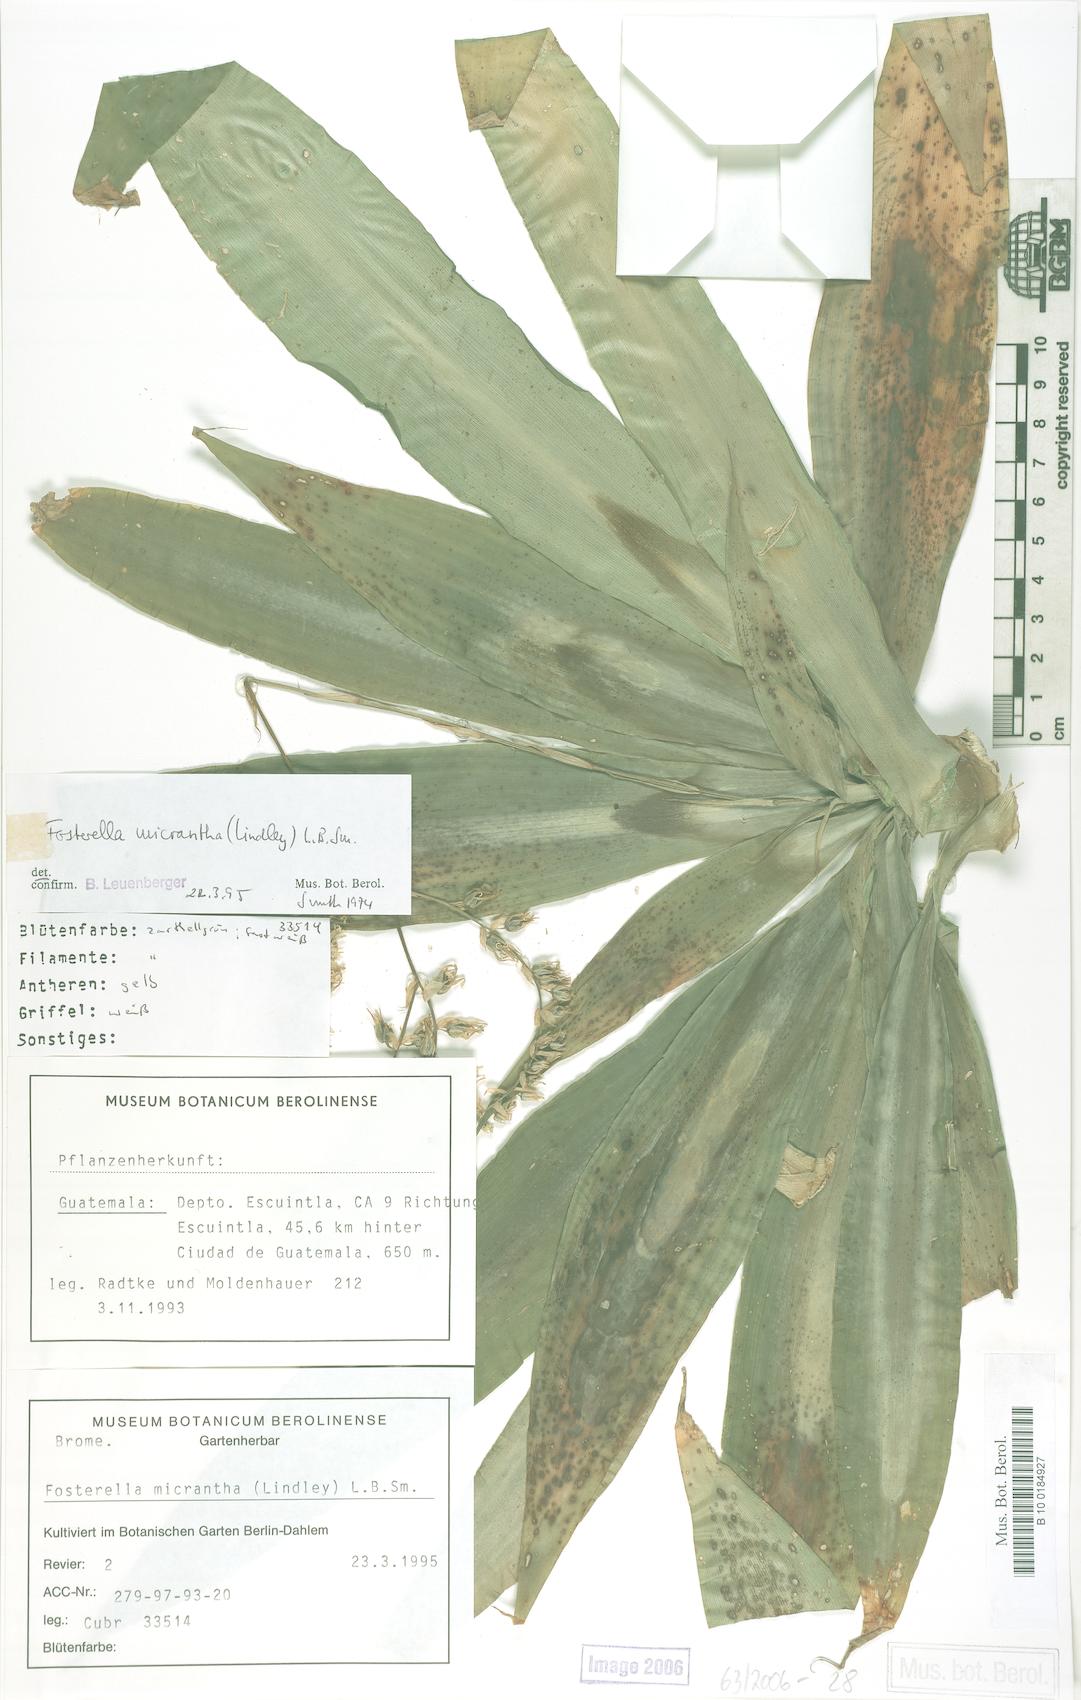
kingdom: Plantae
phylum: Tracheophyta
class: Liliopsida
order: Poales
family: Bromeliaceae
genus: Fosterella
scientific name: Fosterella micrantha
